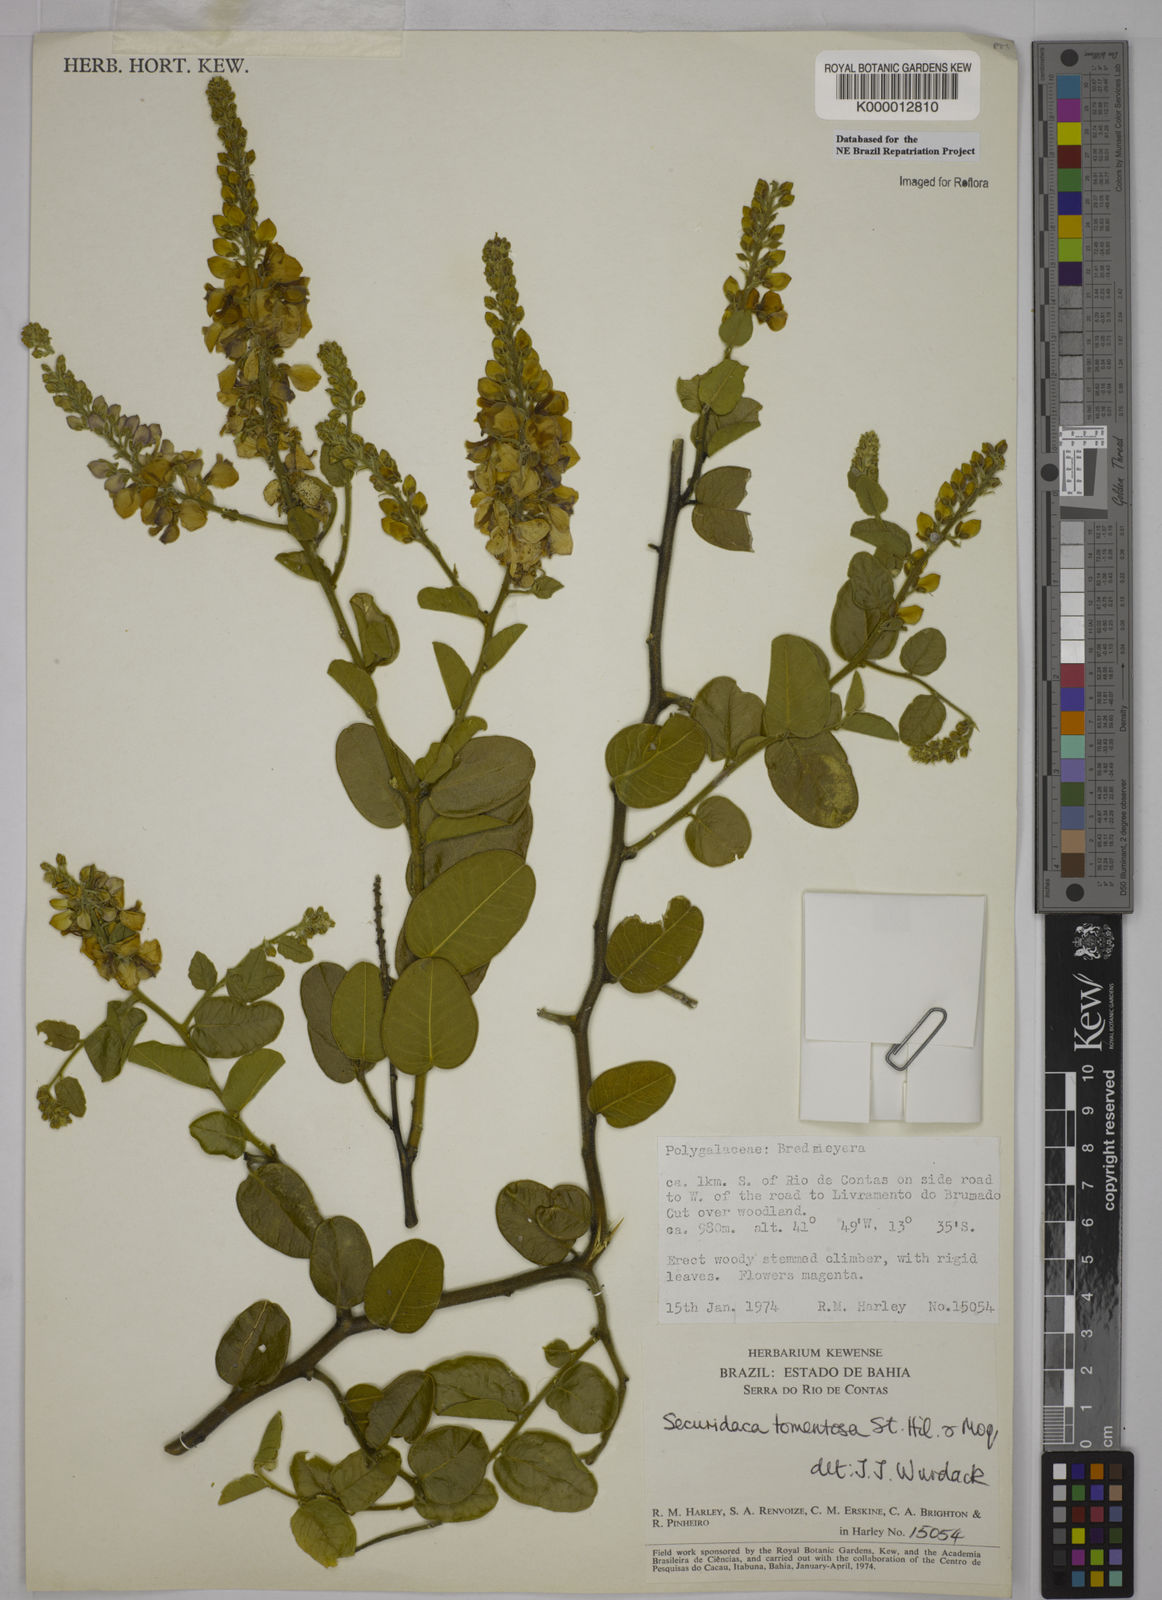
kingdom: Plantae
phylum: Tracheophyta
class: Magnoliopsida
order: Fabales
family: Polygalaceae
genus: Securidaca
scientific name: Securidaca tomentosa
